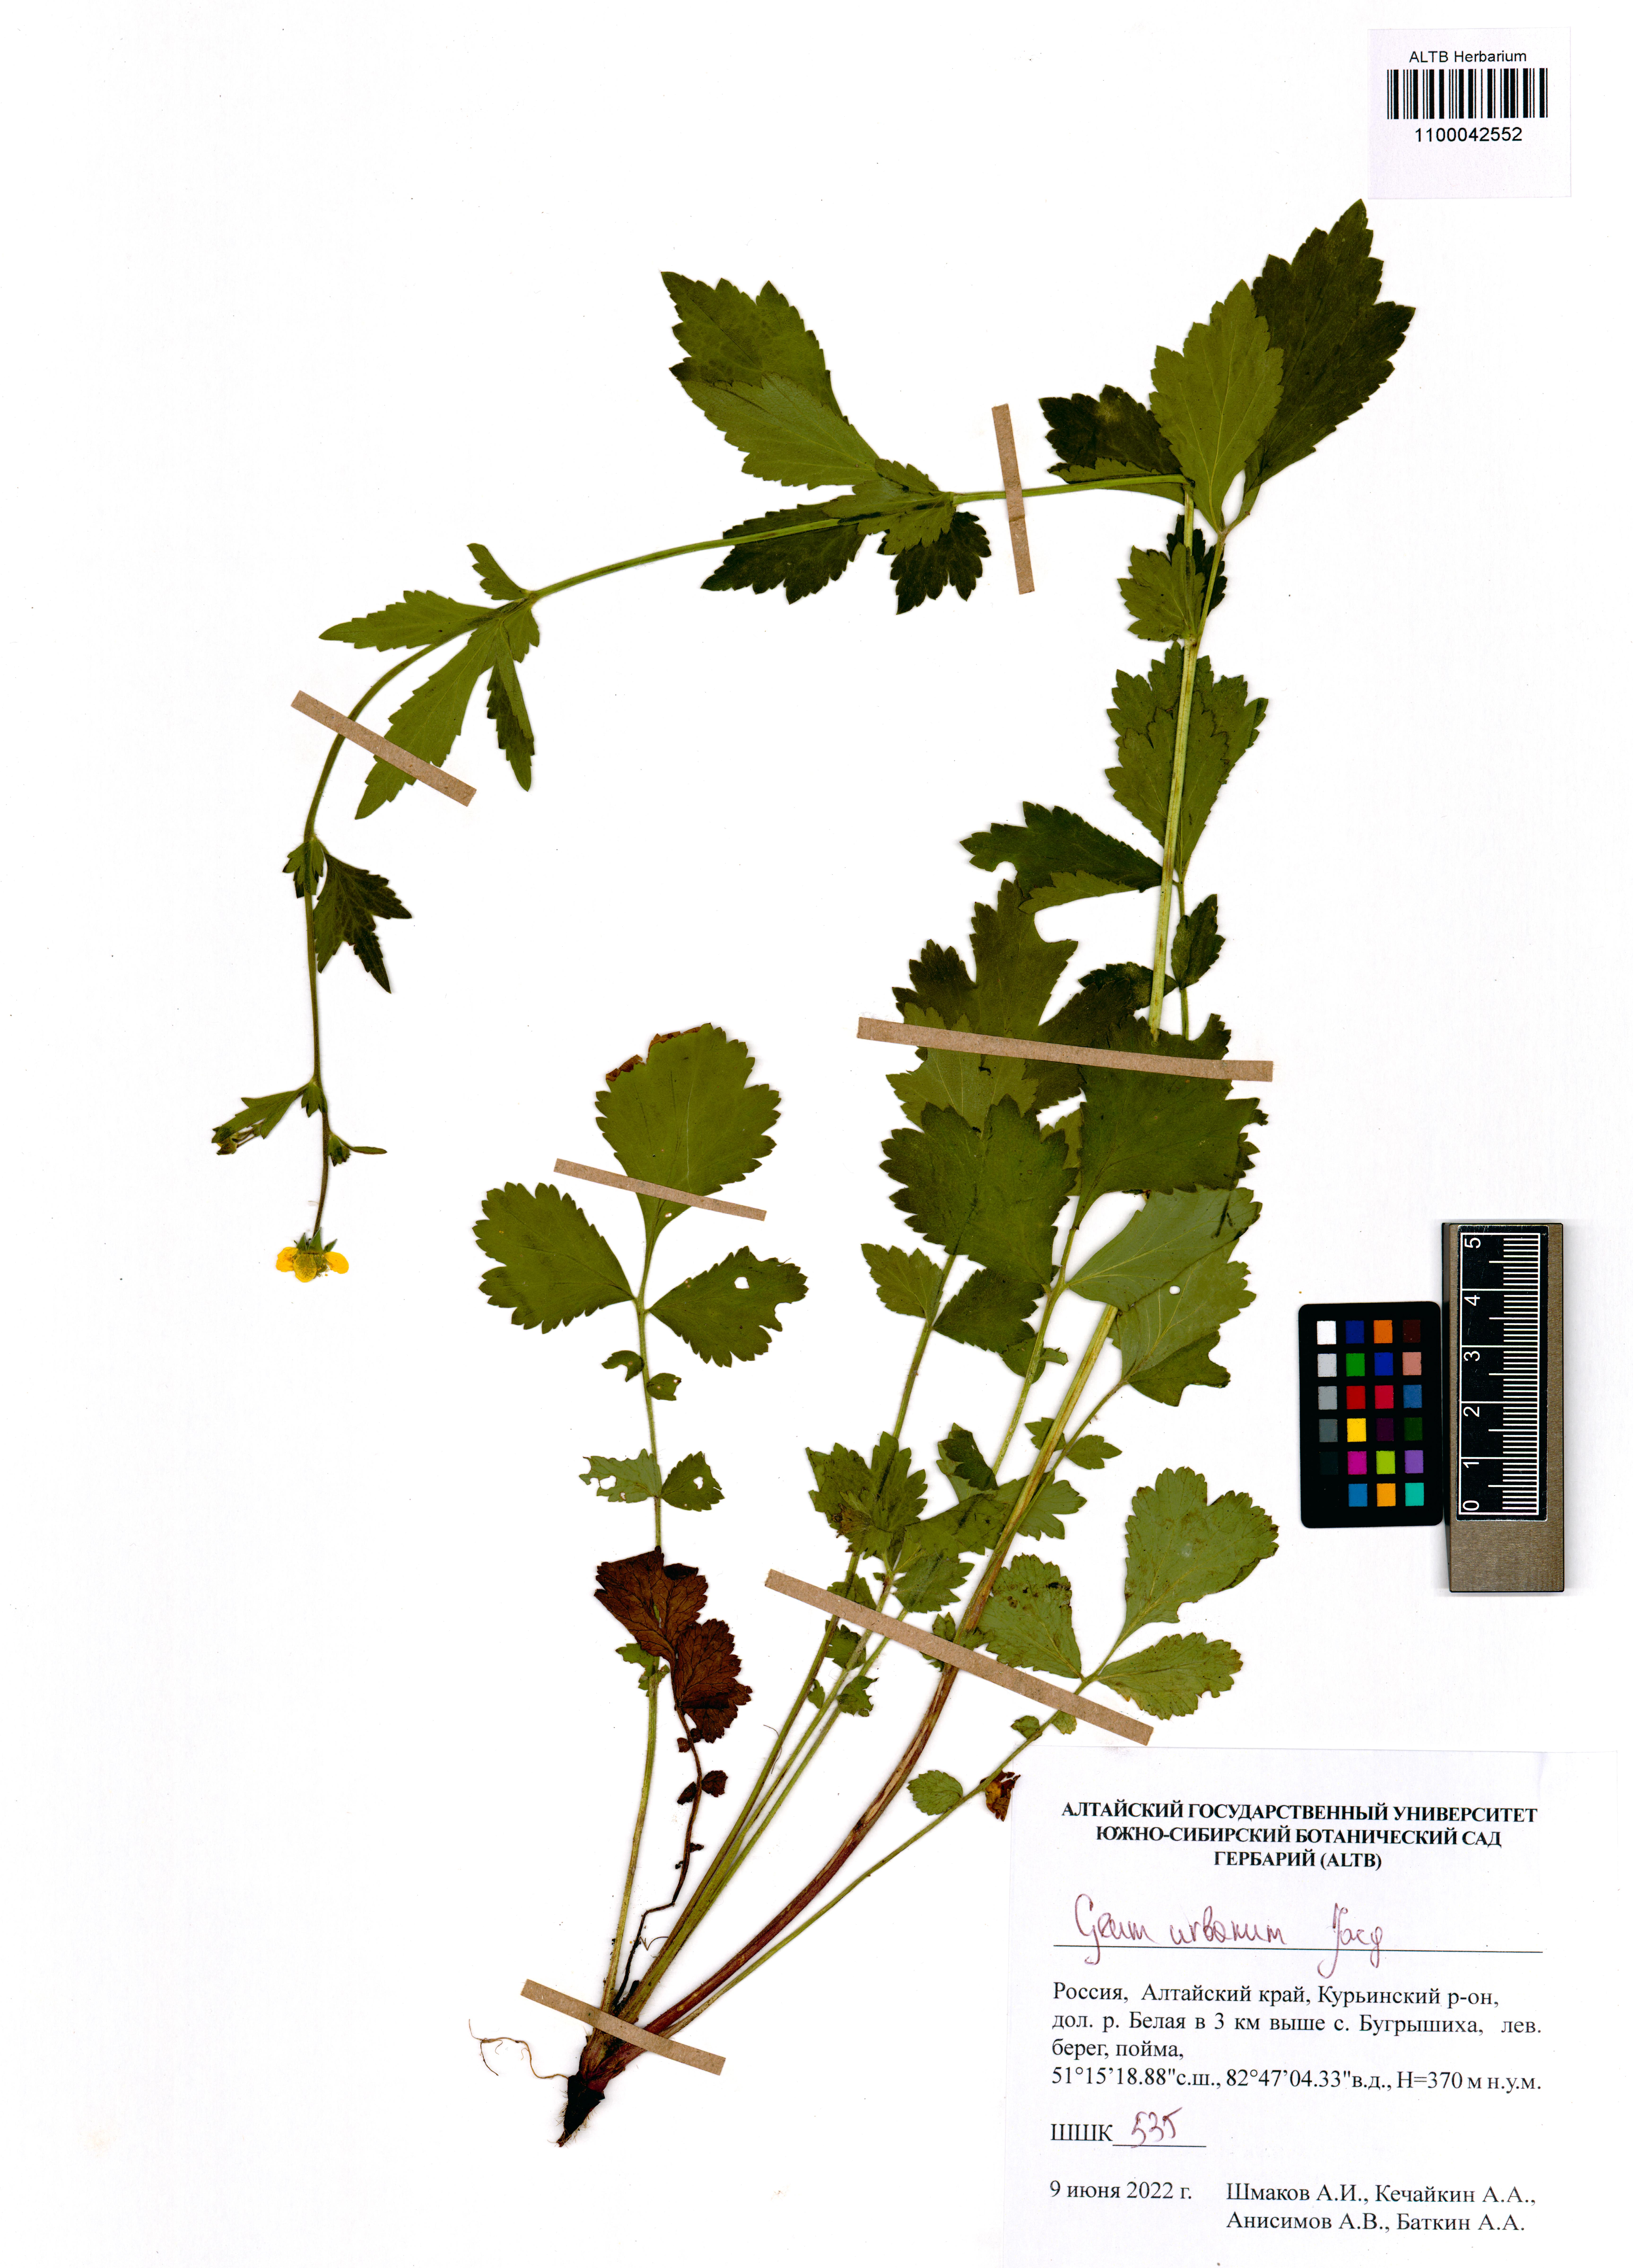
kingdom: Plantae
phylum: Tracheophyta
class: Magnoliopsida
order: Rosales
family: Rosaceae
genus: Geum
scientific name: Geum urbanum
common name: Wood avens
